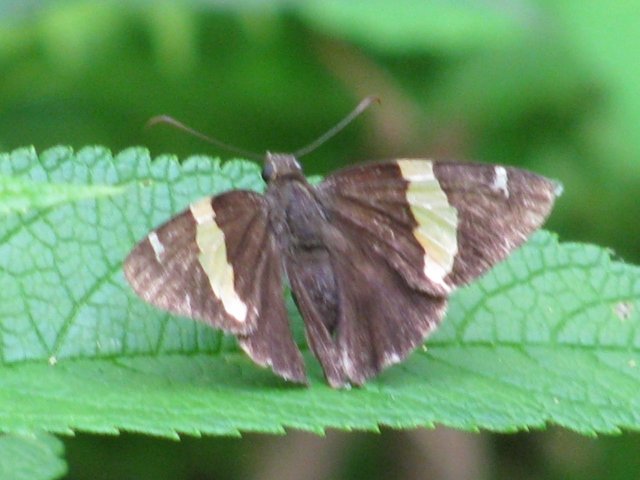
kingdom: Animalia
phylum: Arthropoda
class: Insecta
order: Lepidoptera
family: Hesperiidae
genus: Autochton
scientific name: Autochton cellus
